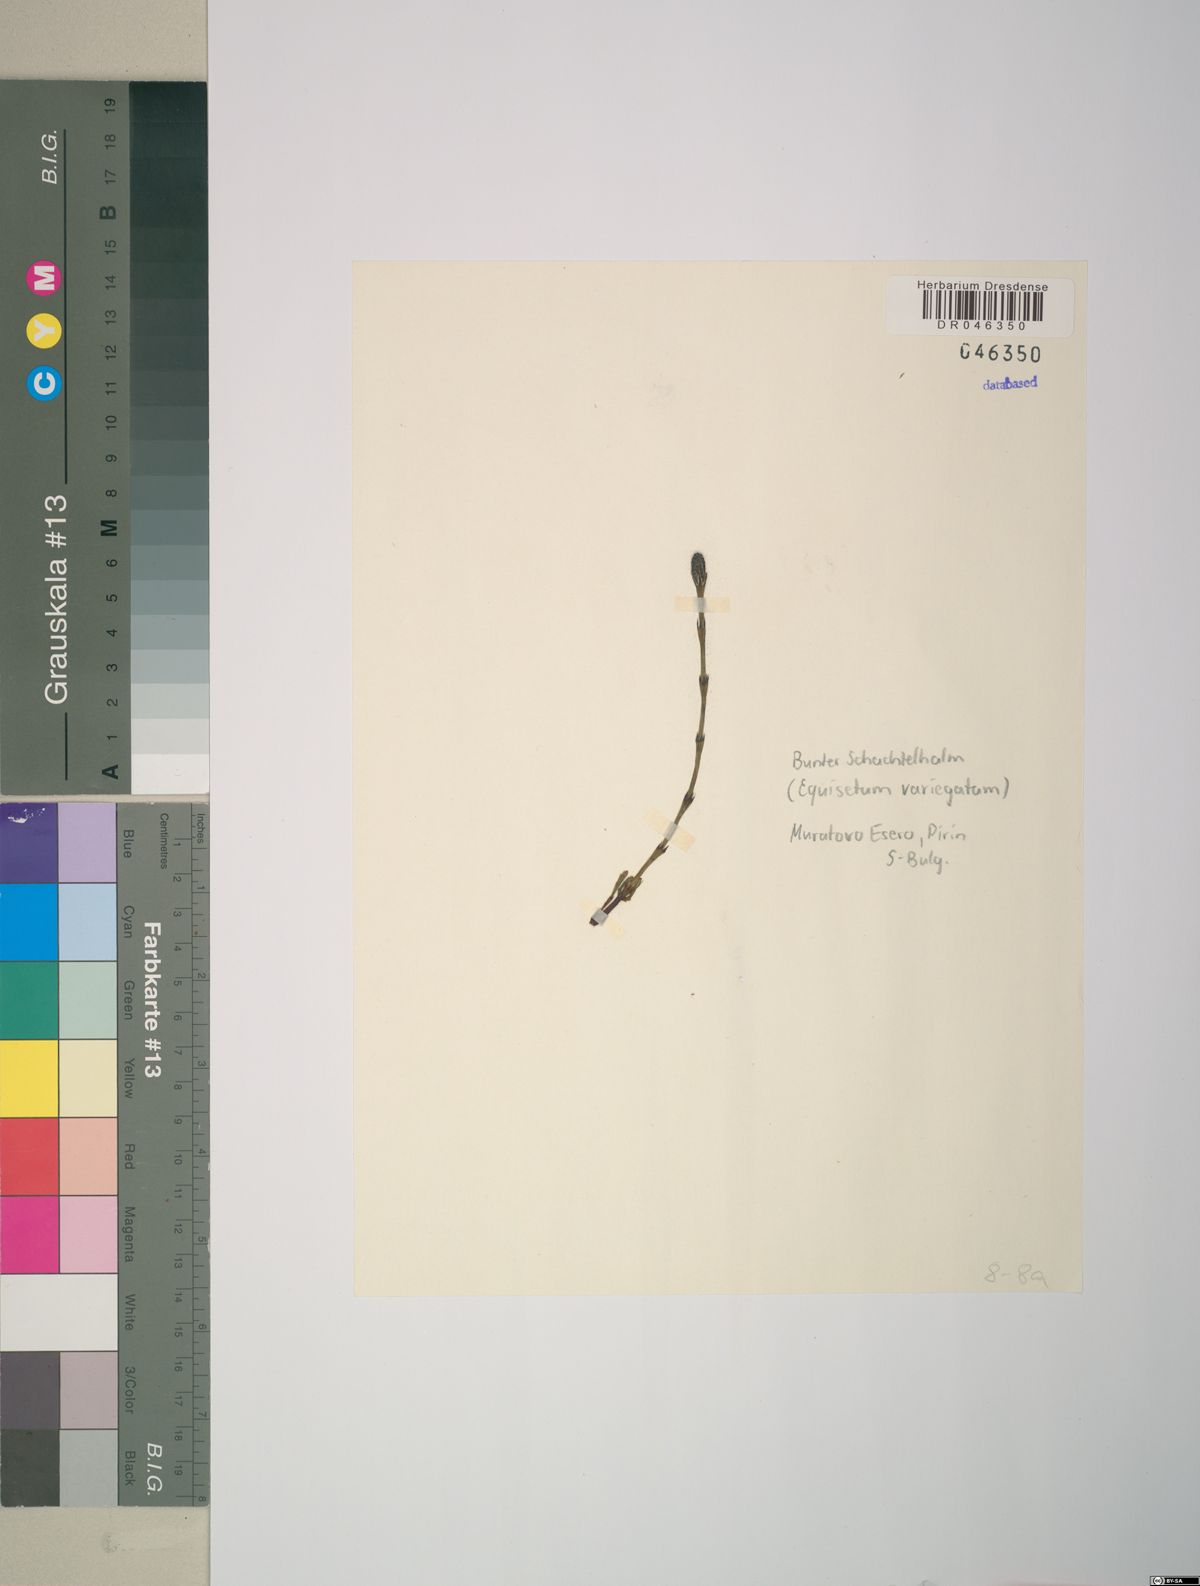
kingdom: Plantae
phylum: Tracheophyta
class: Polypodiopsida
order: Equisetales
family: Equisetaceae
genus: Equisetum
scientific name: Equisetum variegatum
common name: Variegated horsetail
